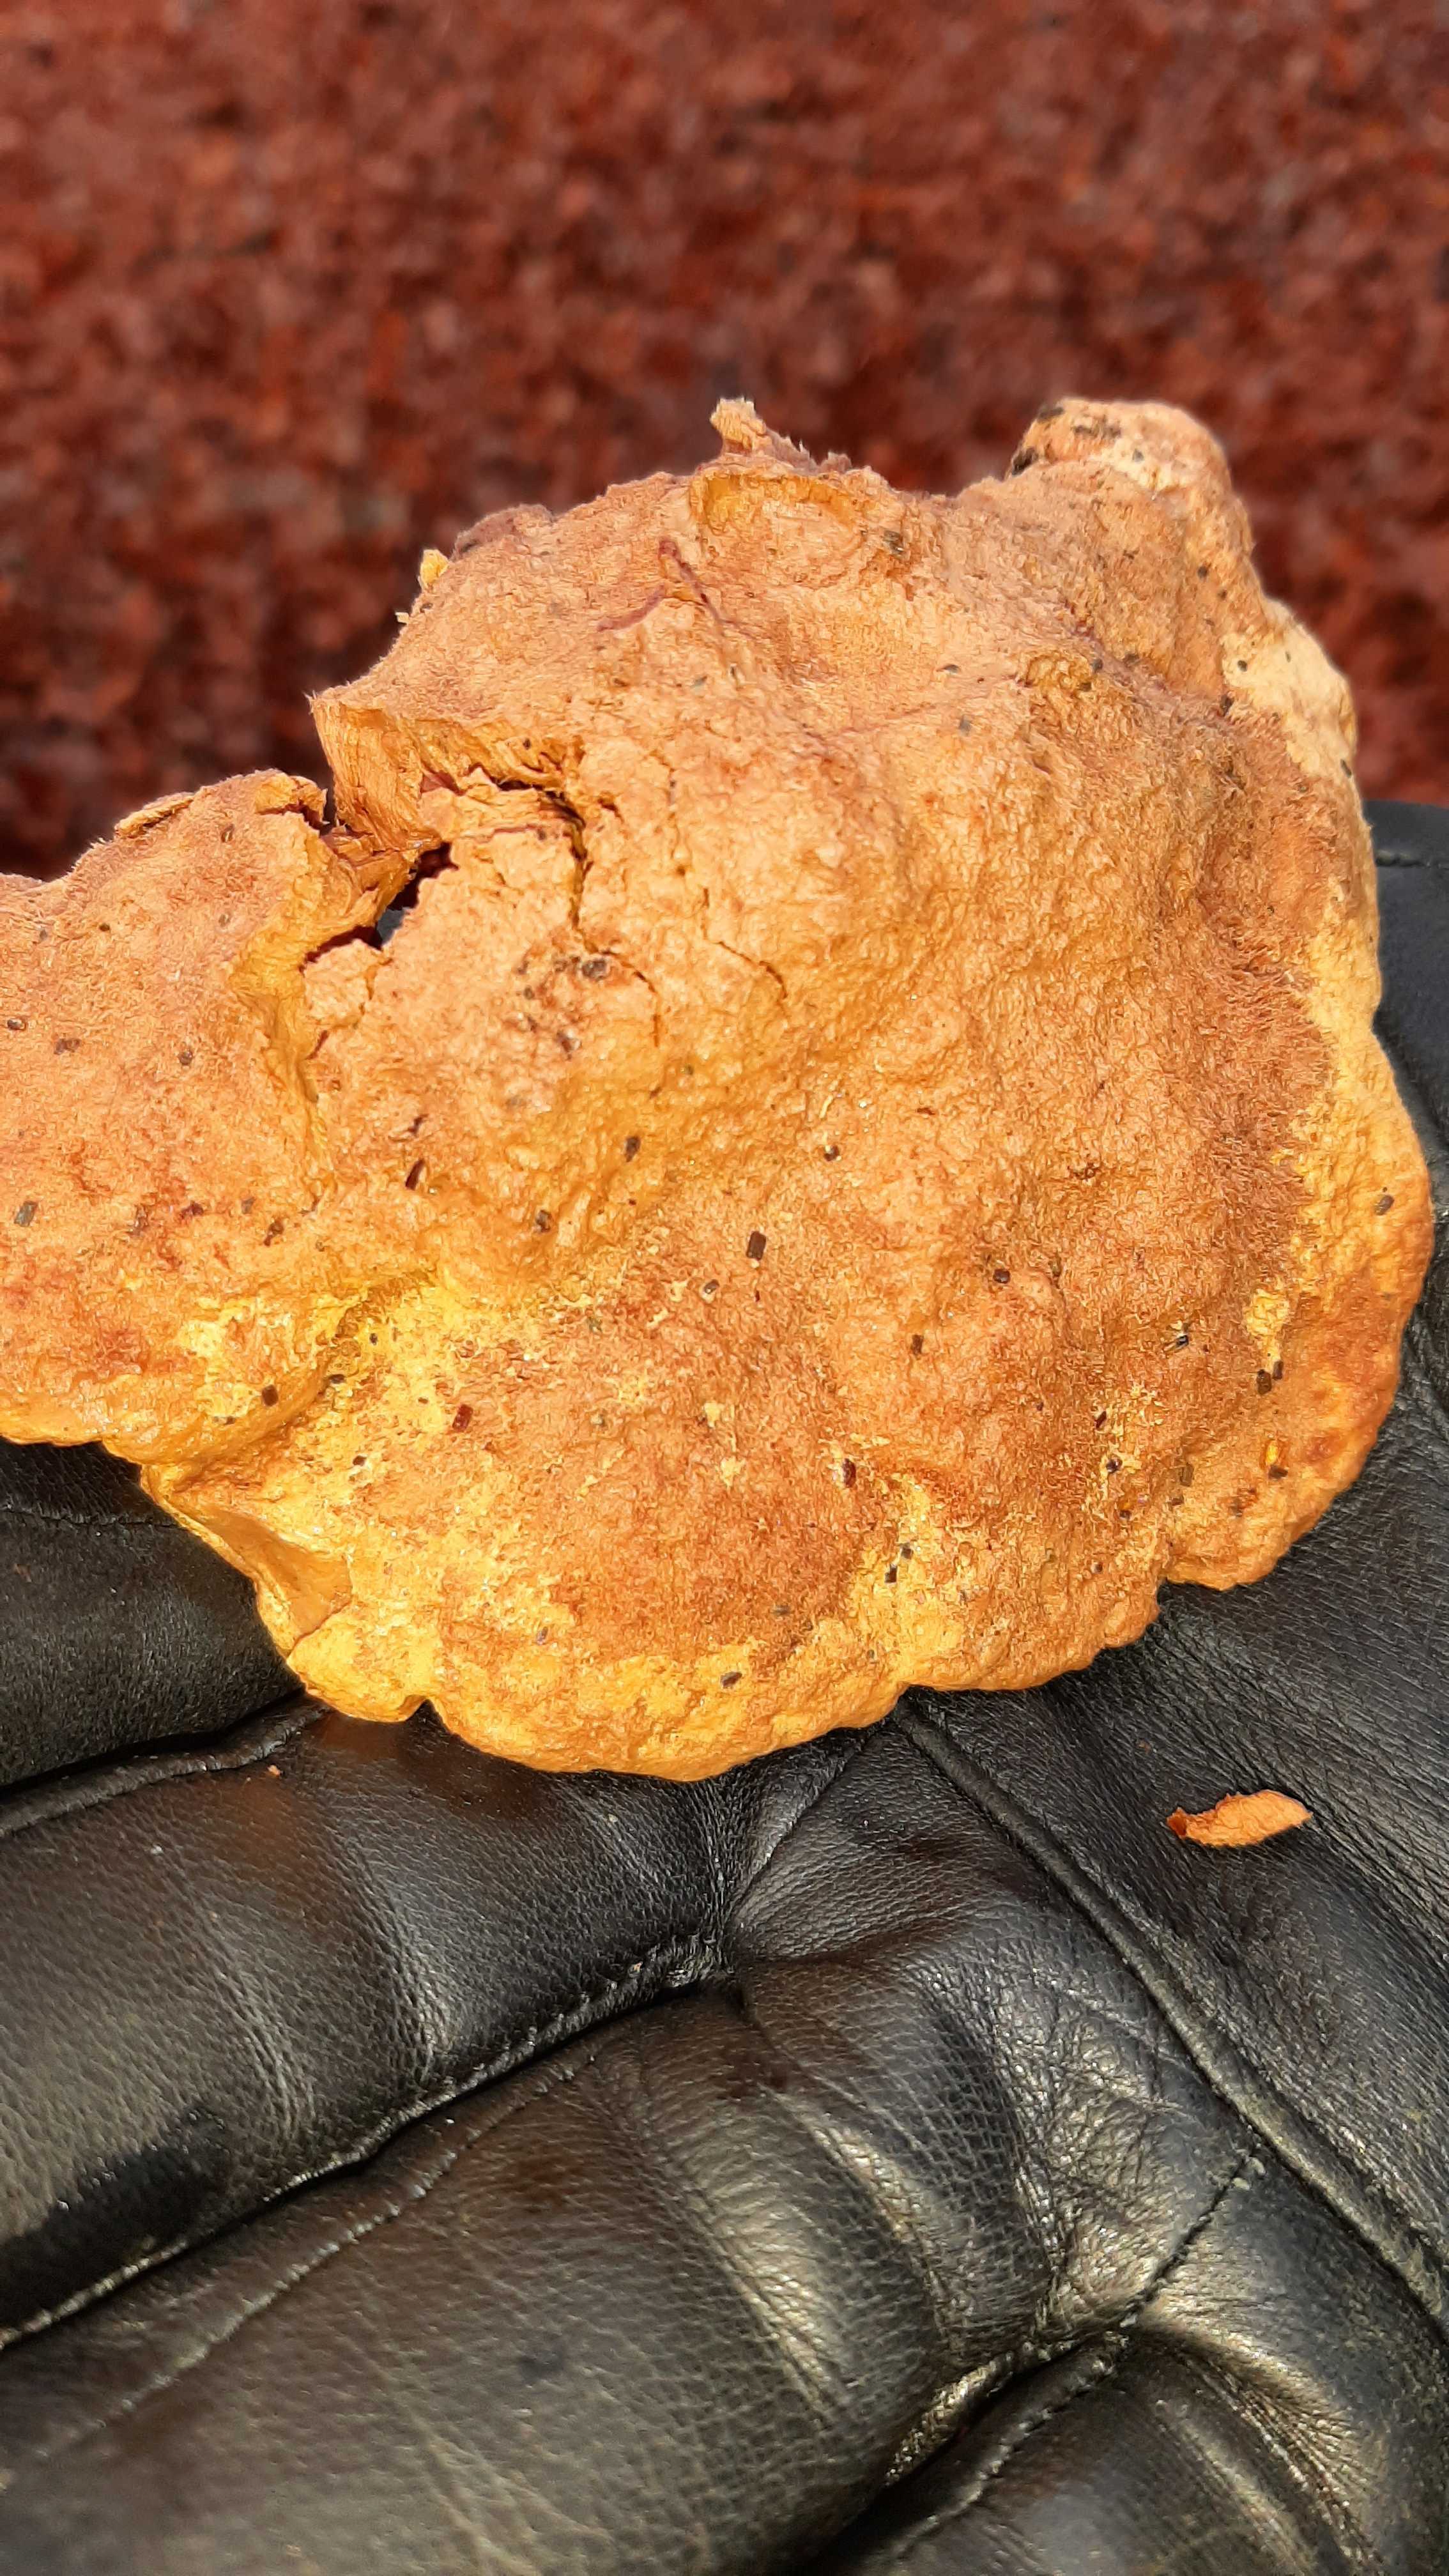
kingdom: Fungi
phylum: Basidiomycota
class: Agaricomycetes
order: Polyporales
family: Phanerochaetaceae
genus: Hapalopilus
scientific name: Hapalopilus rutilans
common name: rødlig okkerporesvamp
